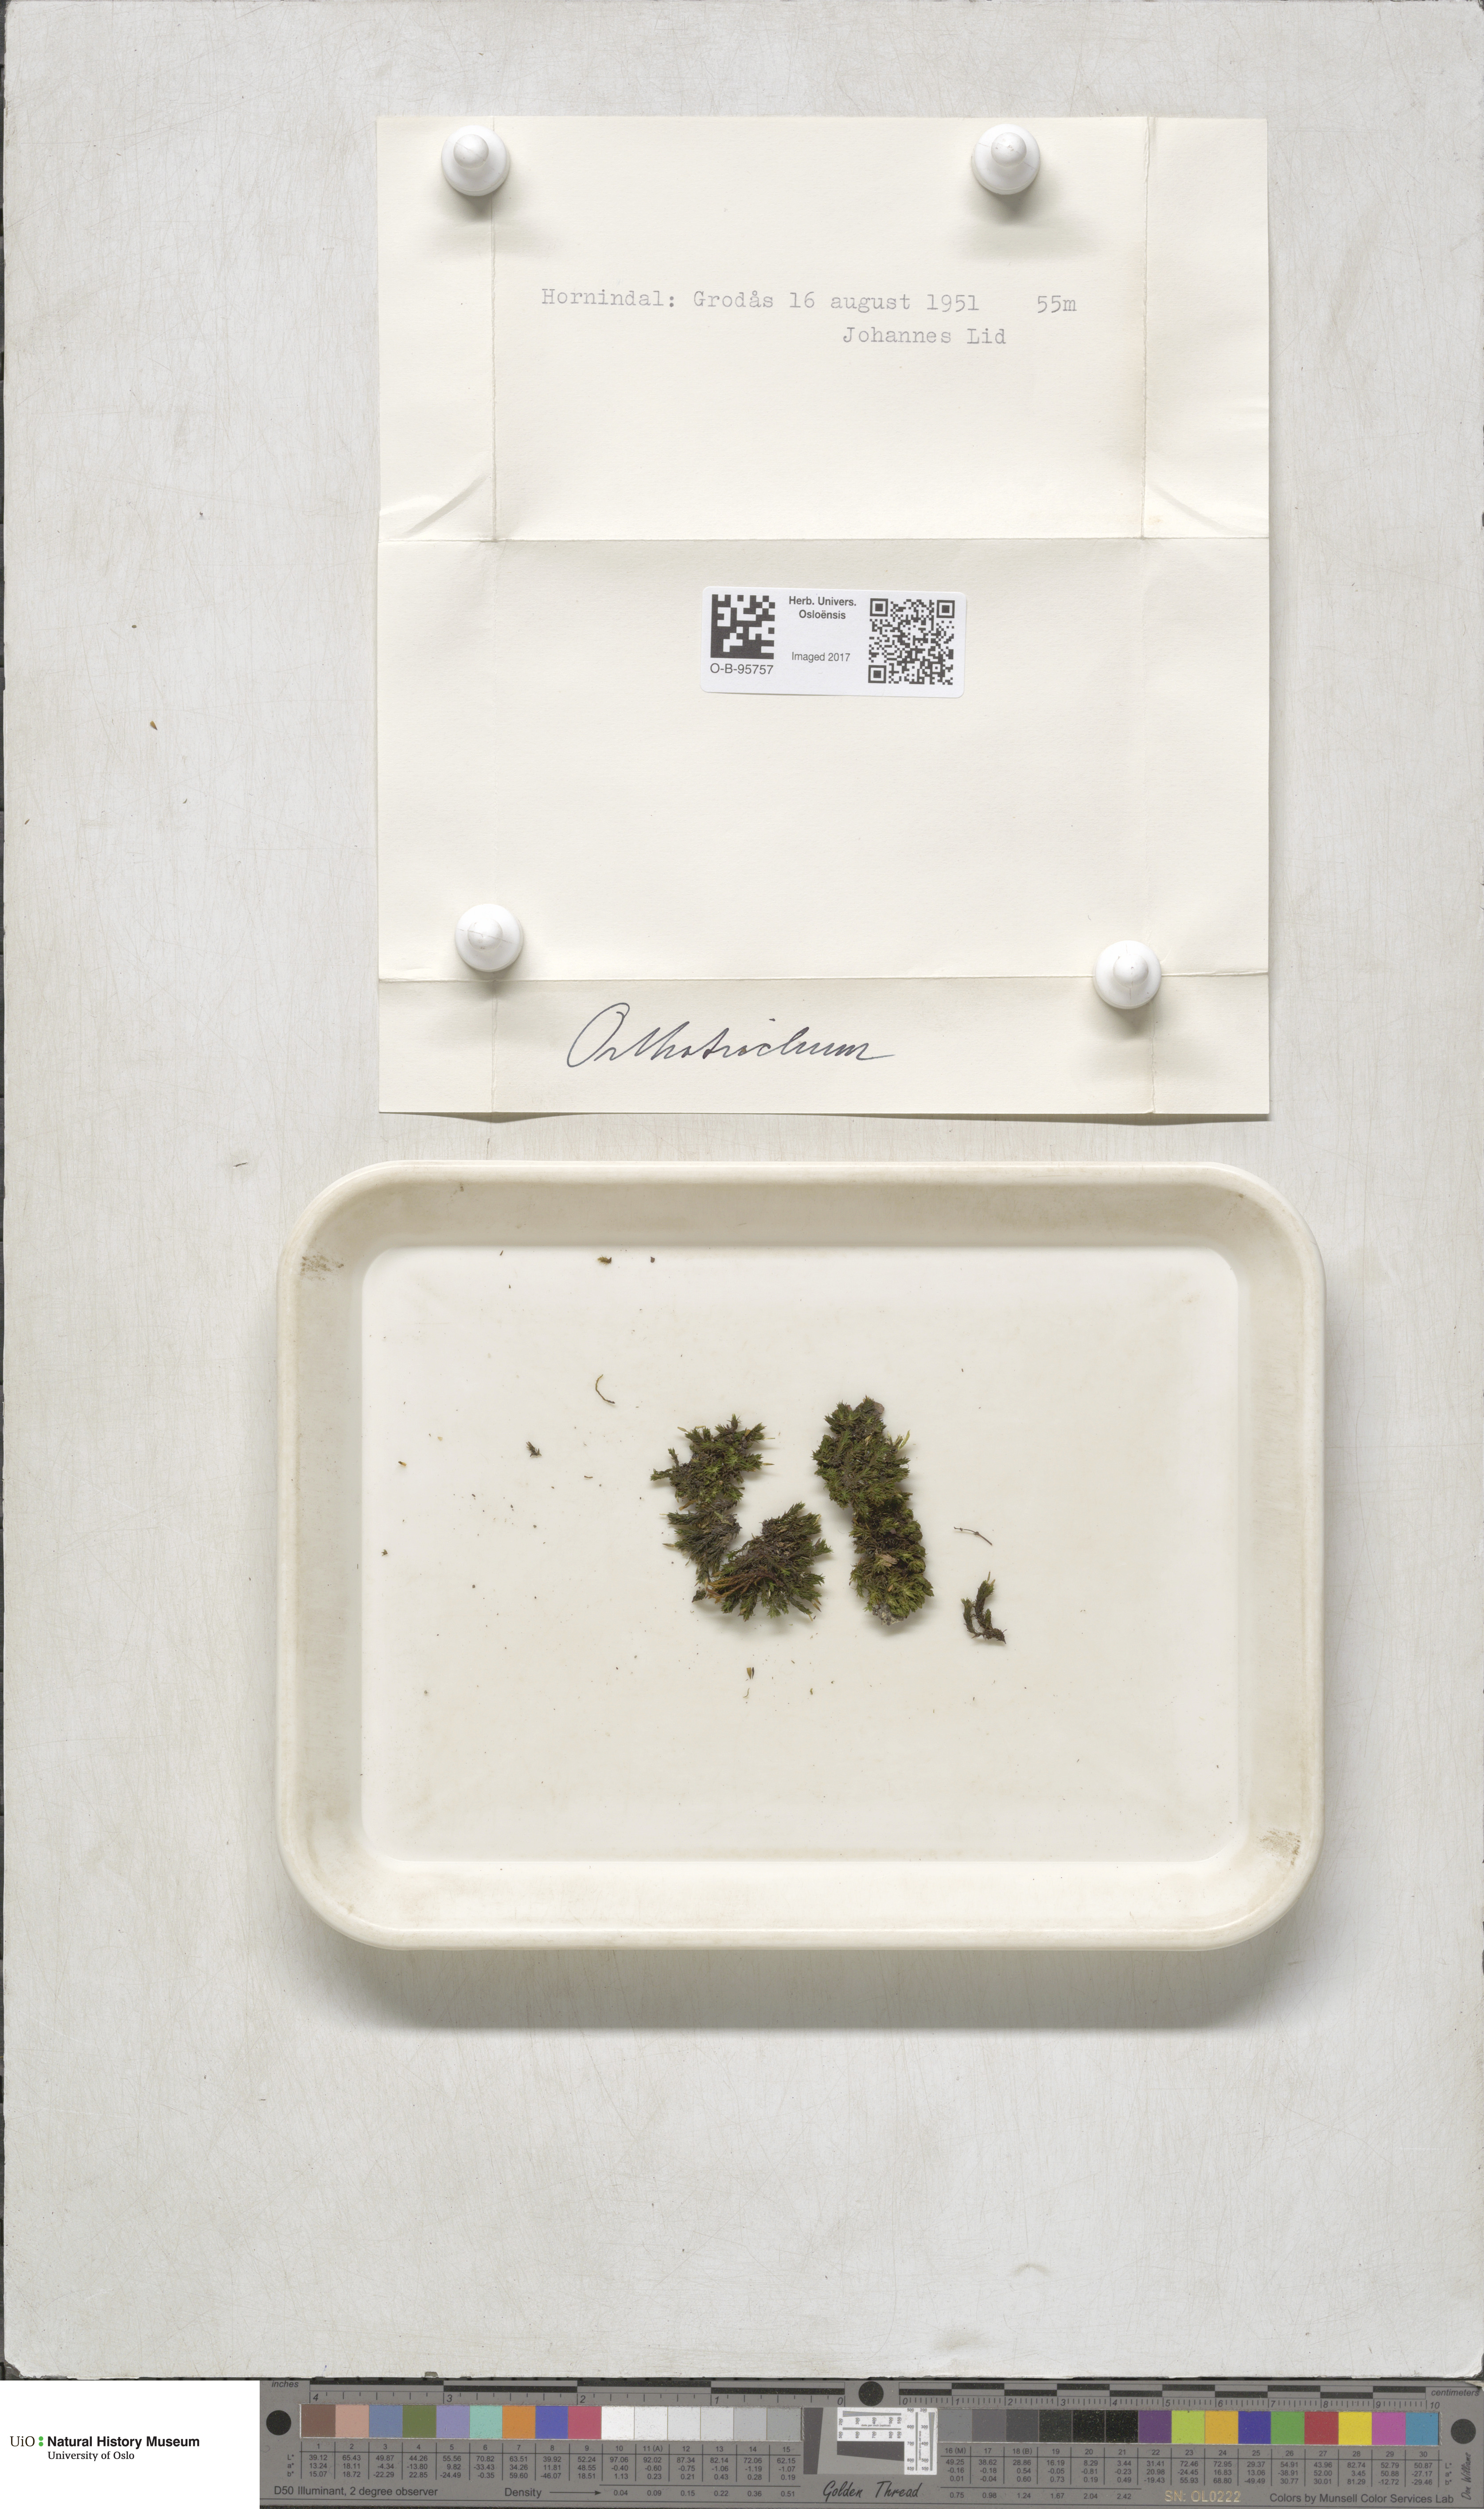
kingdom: Plantae
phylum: Bryophyta
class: Bryopsida
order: Orthotrichales
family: Orthotrichaceae
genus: Orthotrichum
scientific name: Orthotrichum
